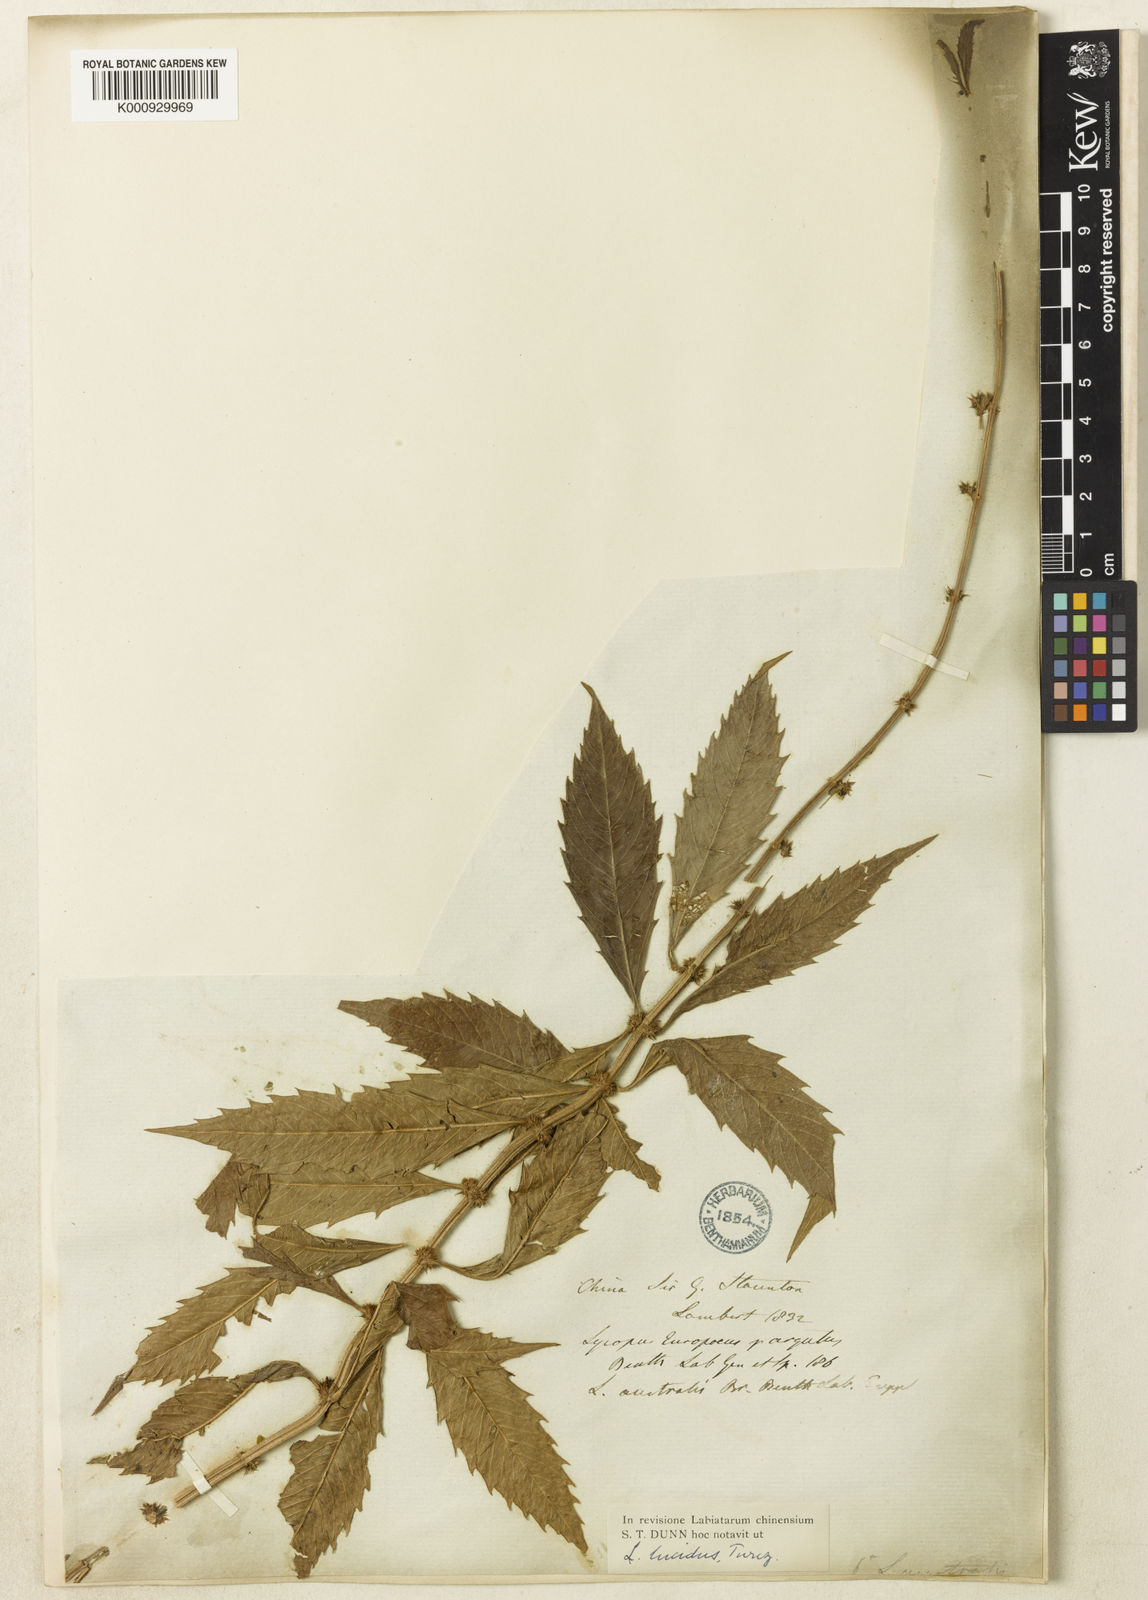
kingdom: Plantae
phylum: Tracheophyta
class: Magnoliopsida
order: Lamiales
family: Lamiaceae
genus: Lycopus
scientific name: Lycopus lucidus
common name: Shiny bugleweed
